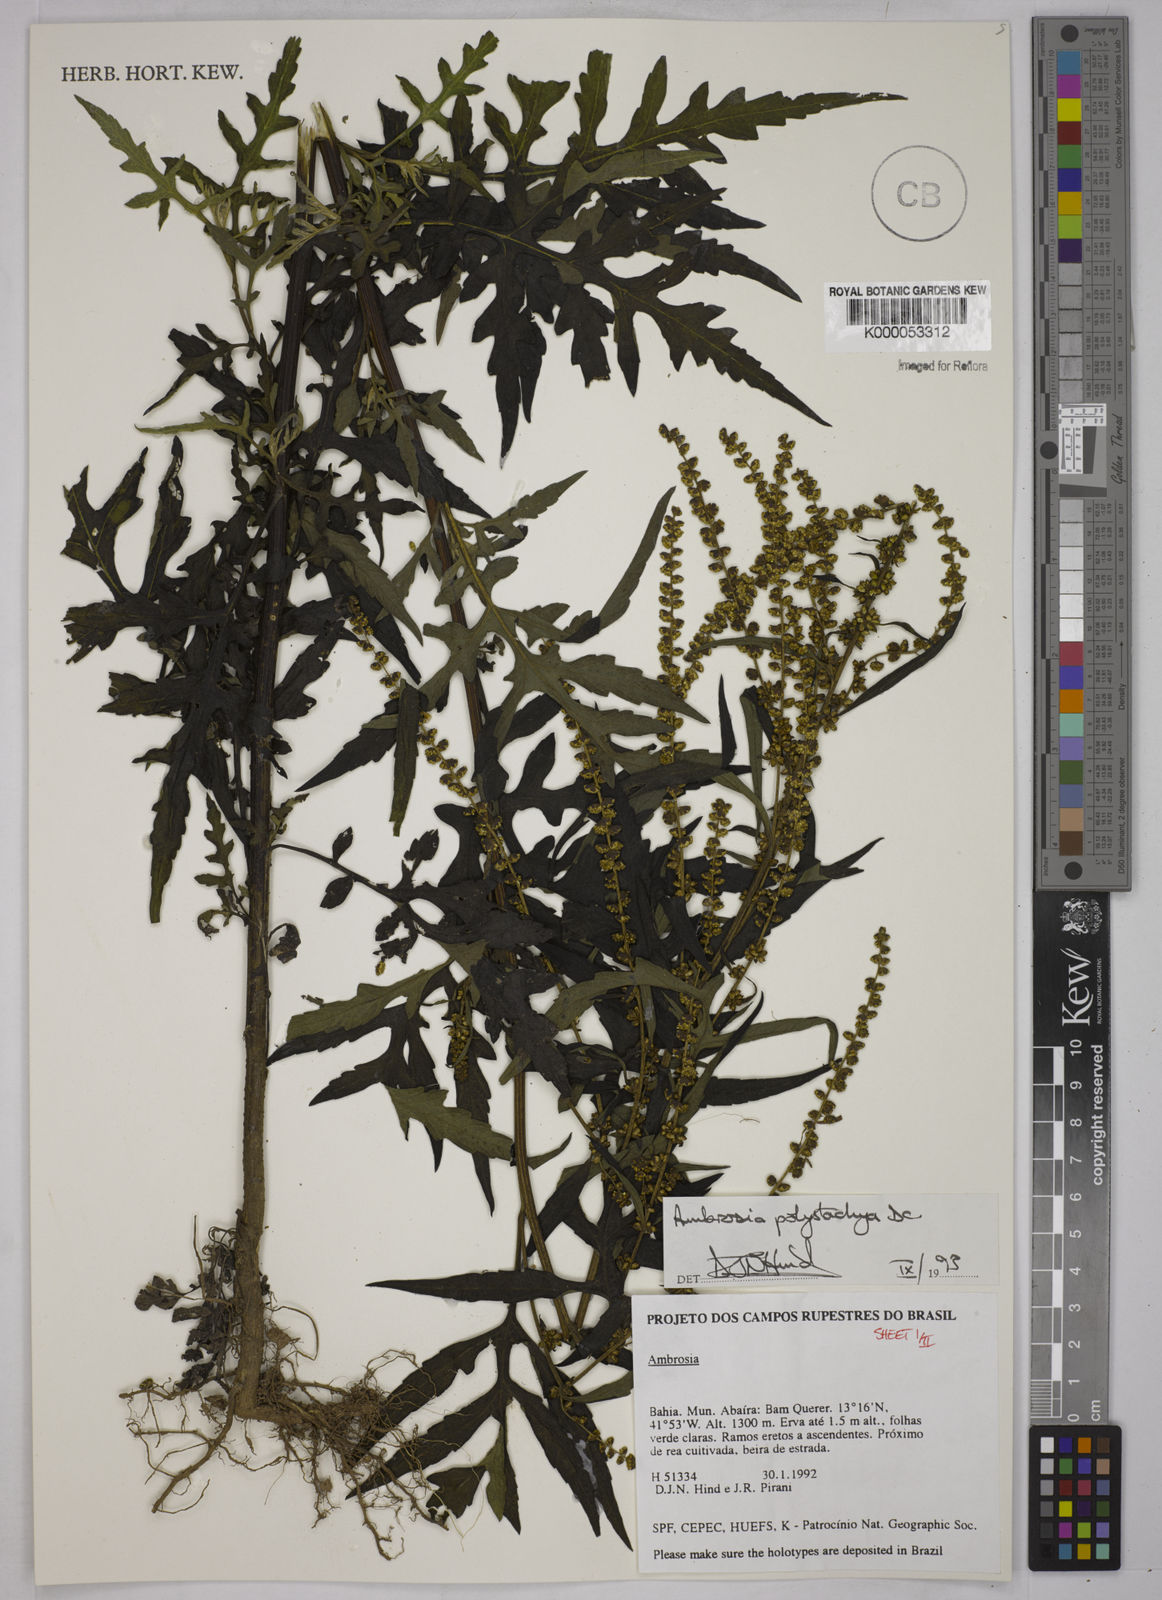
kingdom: Plantae
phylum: Tracheophyta
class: Magnoliopsida
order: Asterales
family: Asteraceae
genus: Ambrosia
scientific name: Ambrosia polystachya
